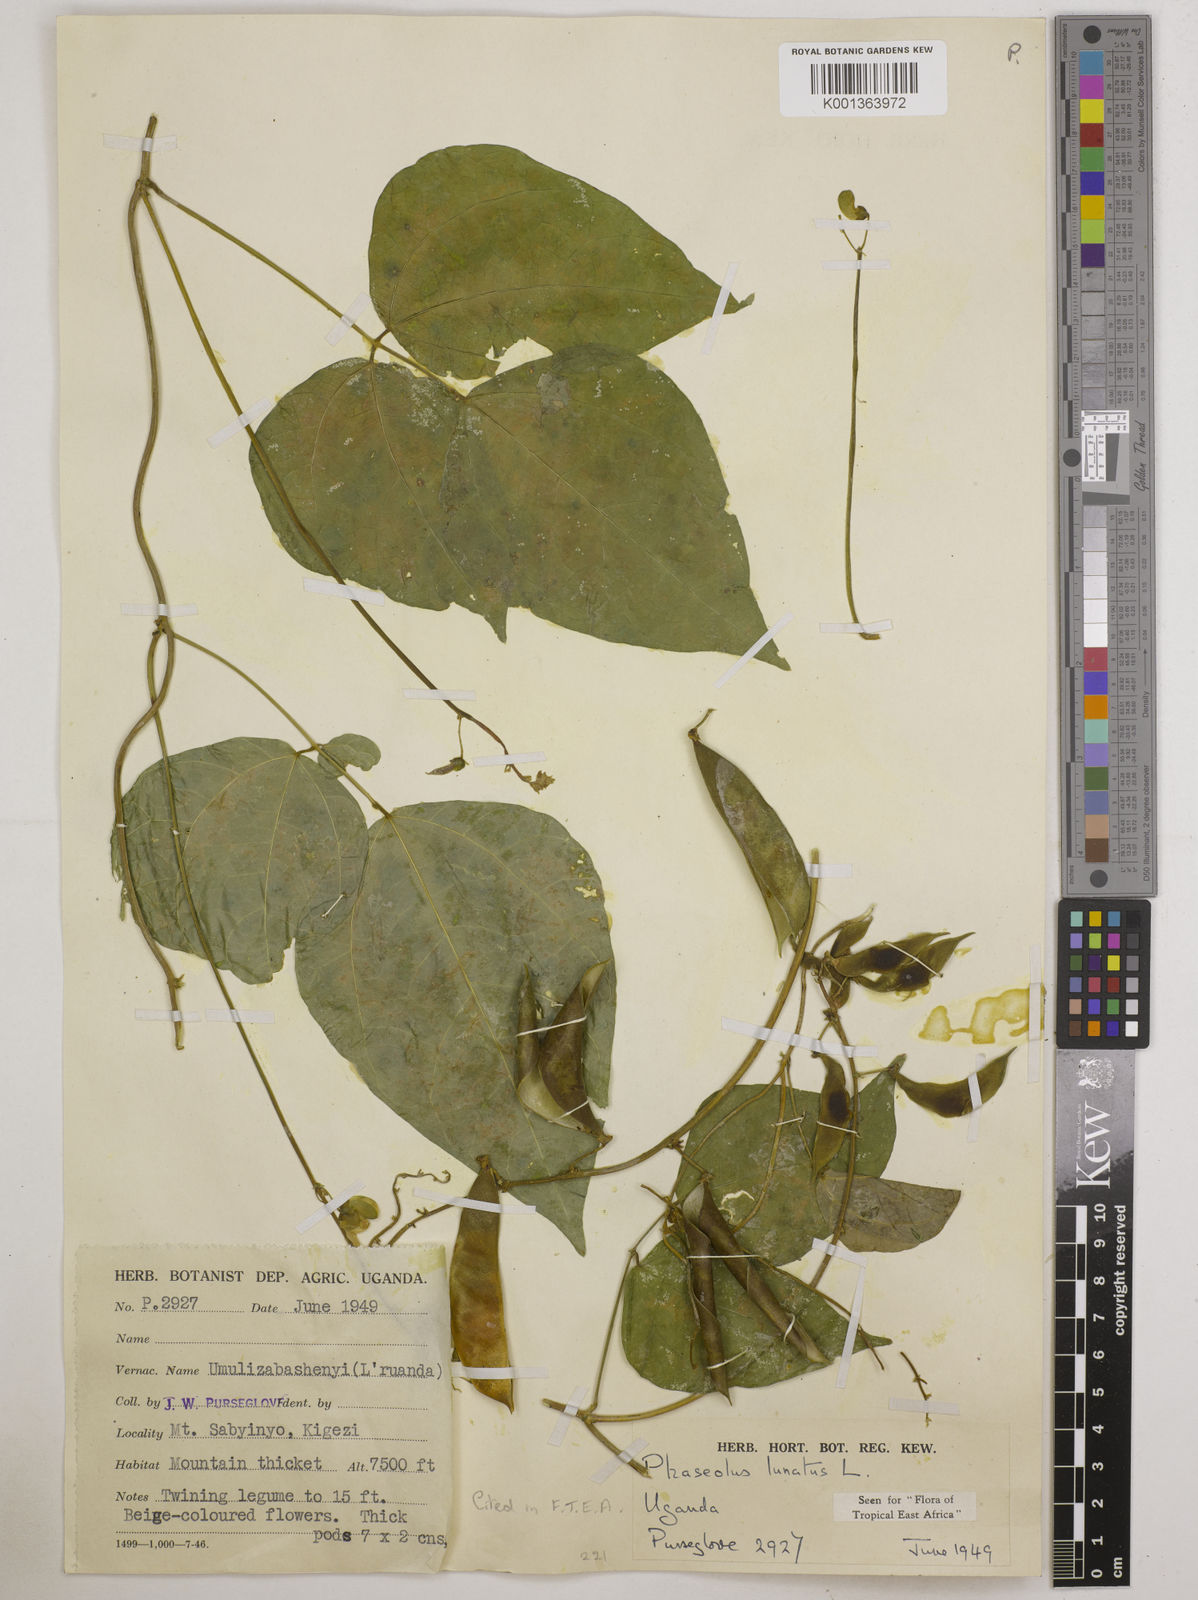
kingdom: Plantae
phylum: Tracheophyta
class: Magnoliopsida
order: Fabales
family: Fabaceae
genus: Phaseolus
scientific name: Phaseolus lunatus
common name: Sieva bean
